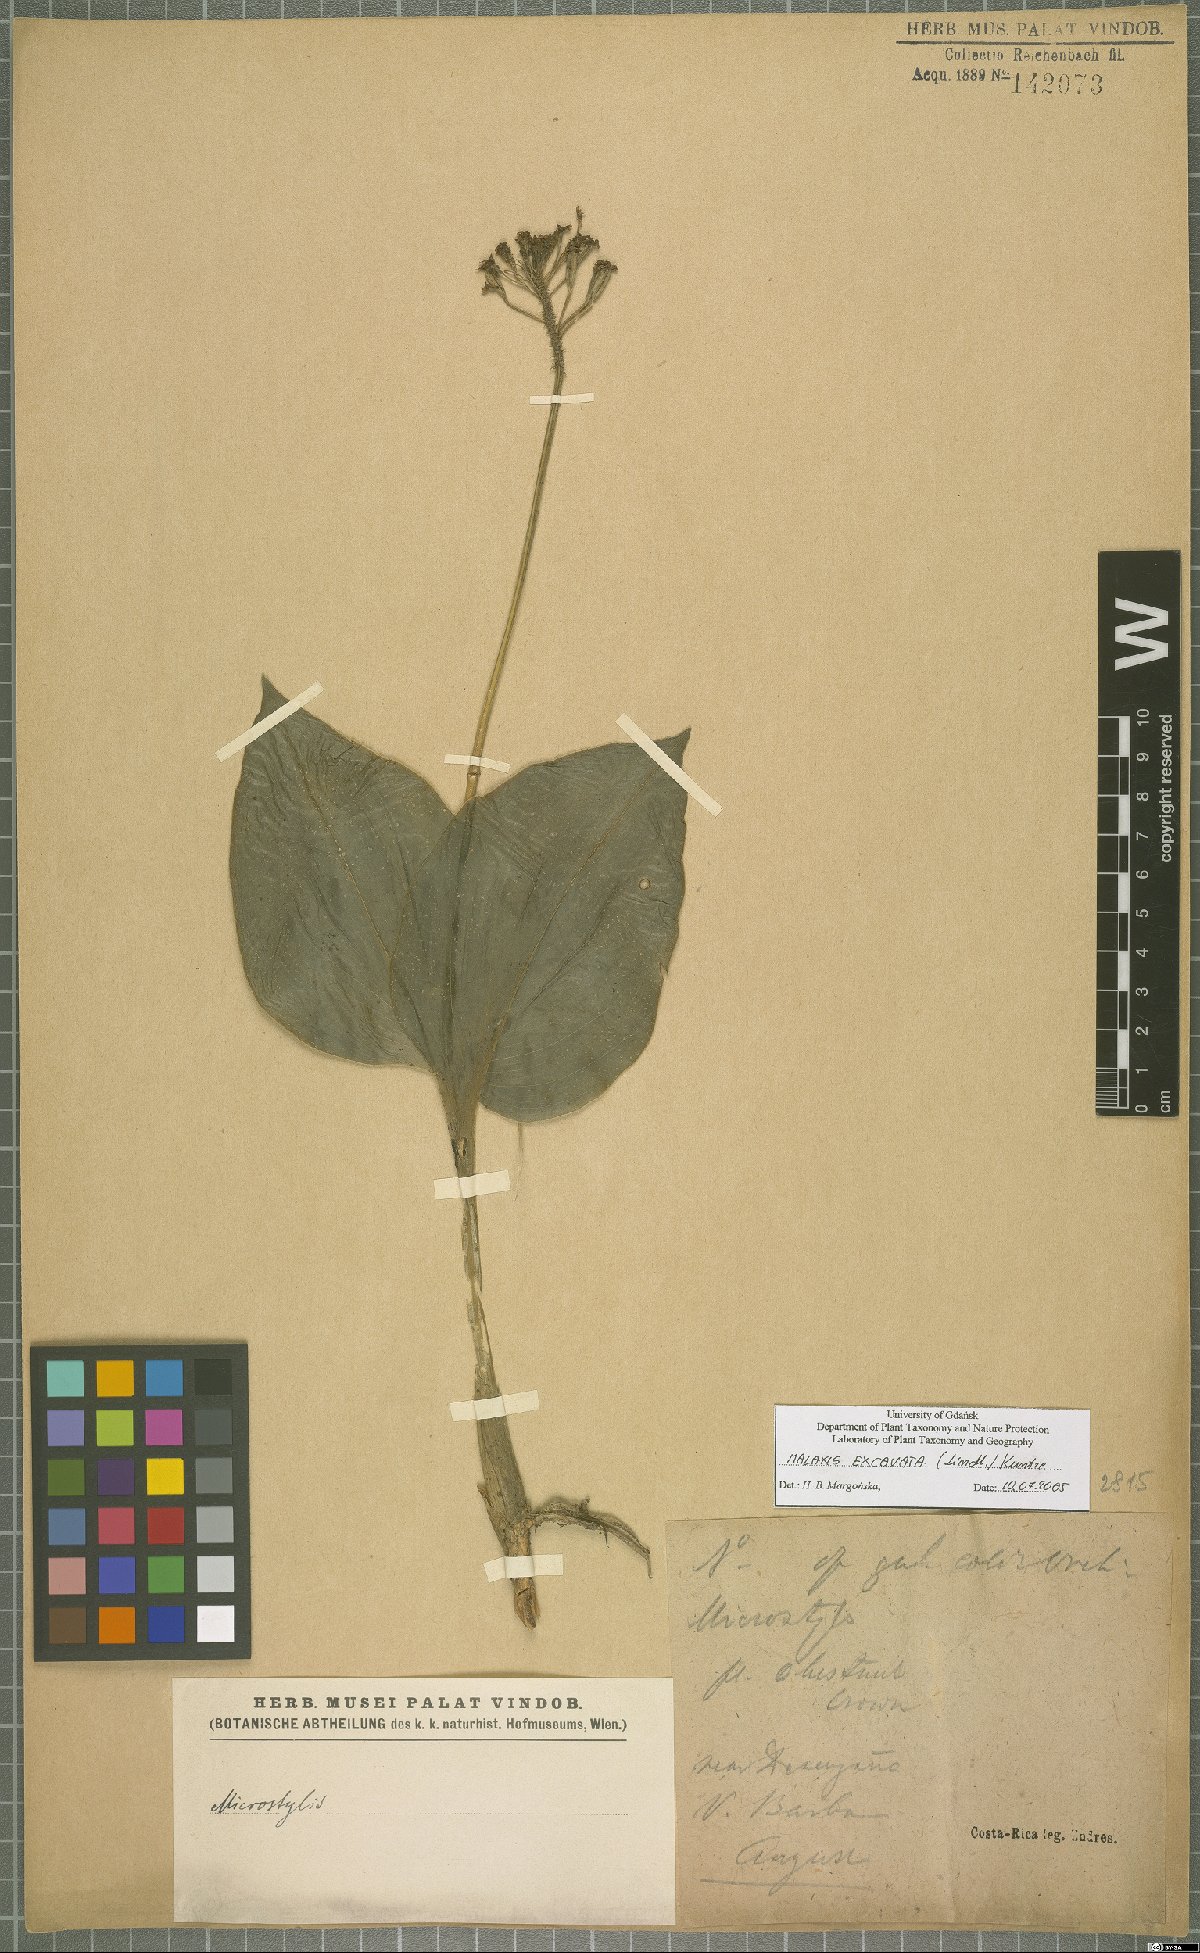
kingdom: Plantae
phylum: Tracheophyta
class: Liliopsida
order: Asparagales
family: Orchidaceae
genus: Malaxis
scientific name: Malaxis excavata
